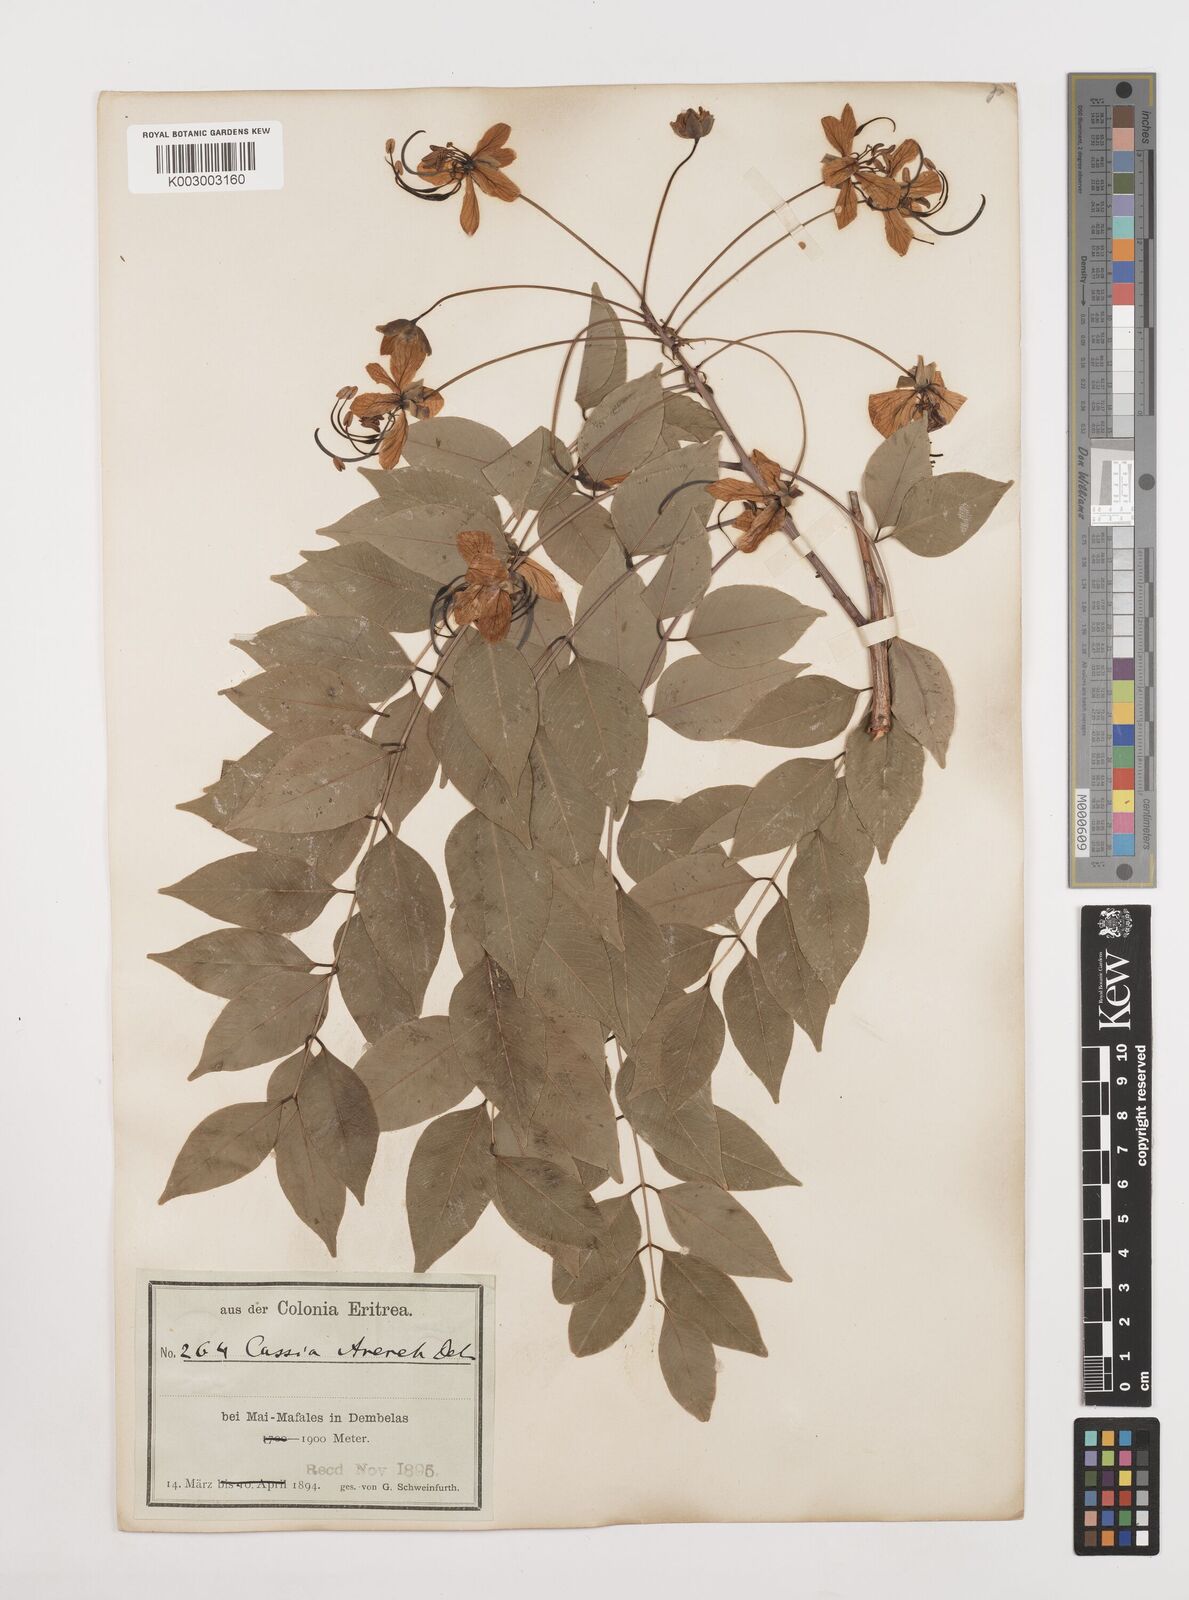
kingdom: Plantae
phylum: Tracheophyta
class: Magnoliopsida
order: Fabales
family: Fabaceae
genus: Cassia
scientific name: Cassia arereh
